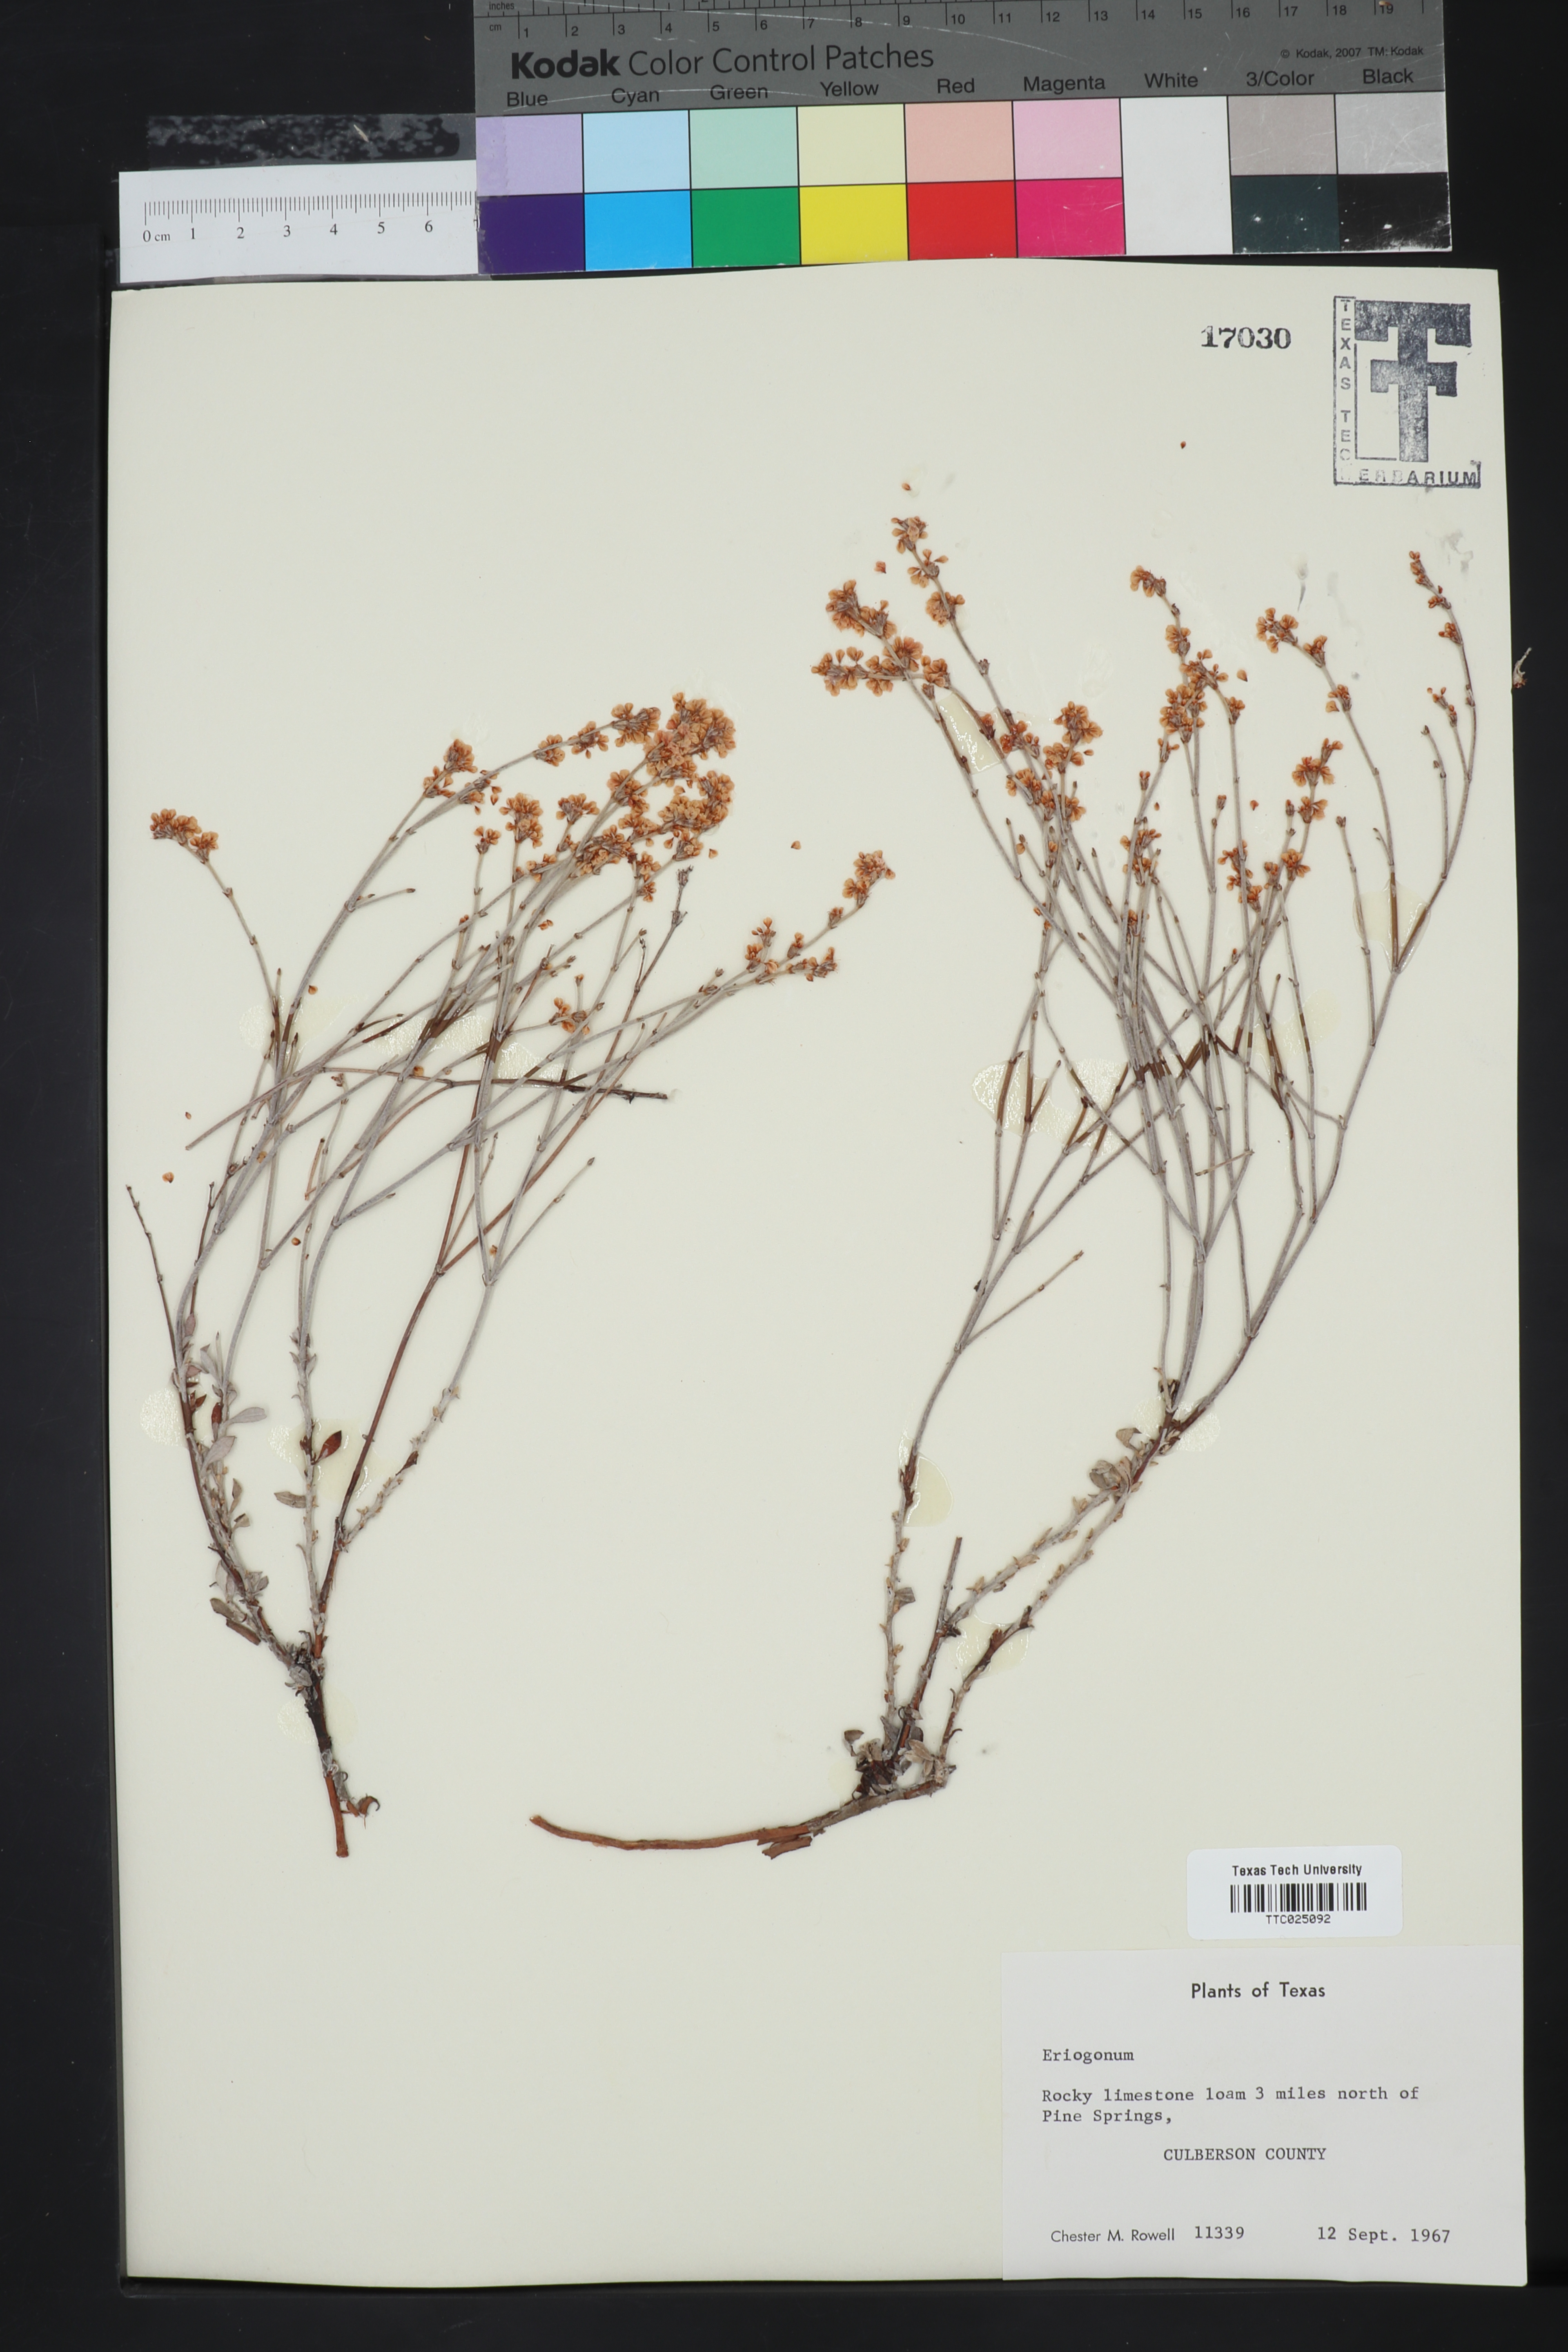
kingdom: Plantae
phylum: Tracheophyta
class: Magnoliopsida
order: Caryophyllales
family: Polygonaceae
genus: Eriogonum
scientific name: Eriogonum
